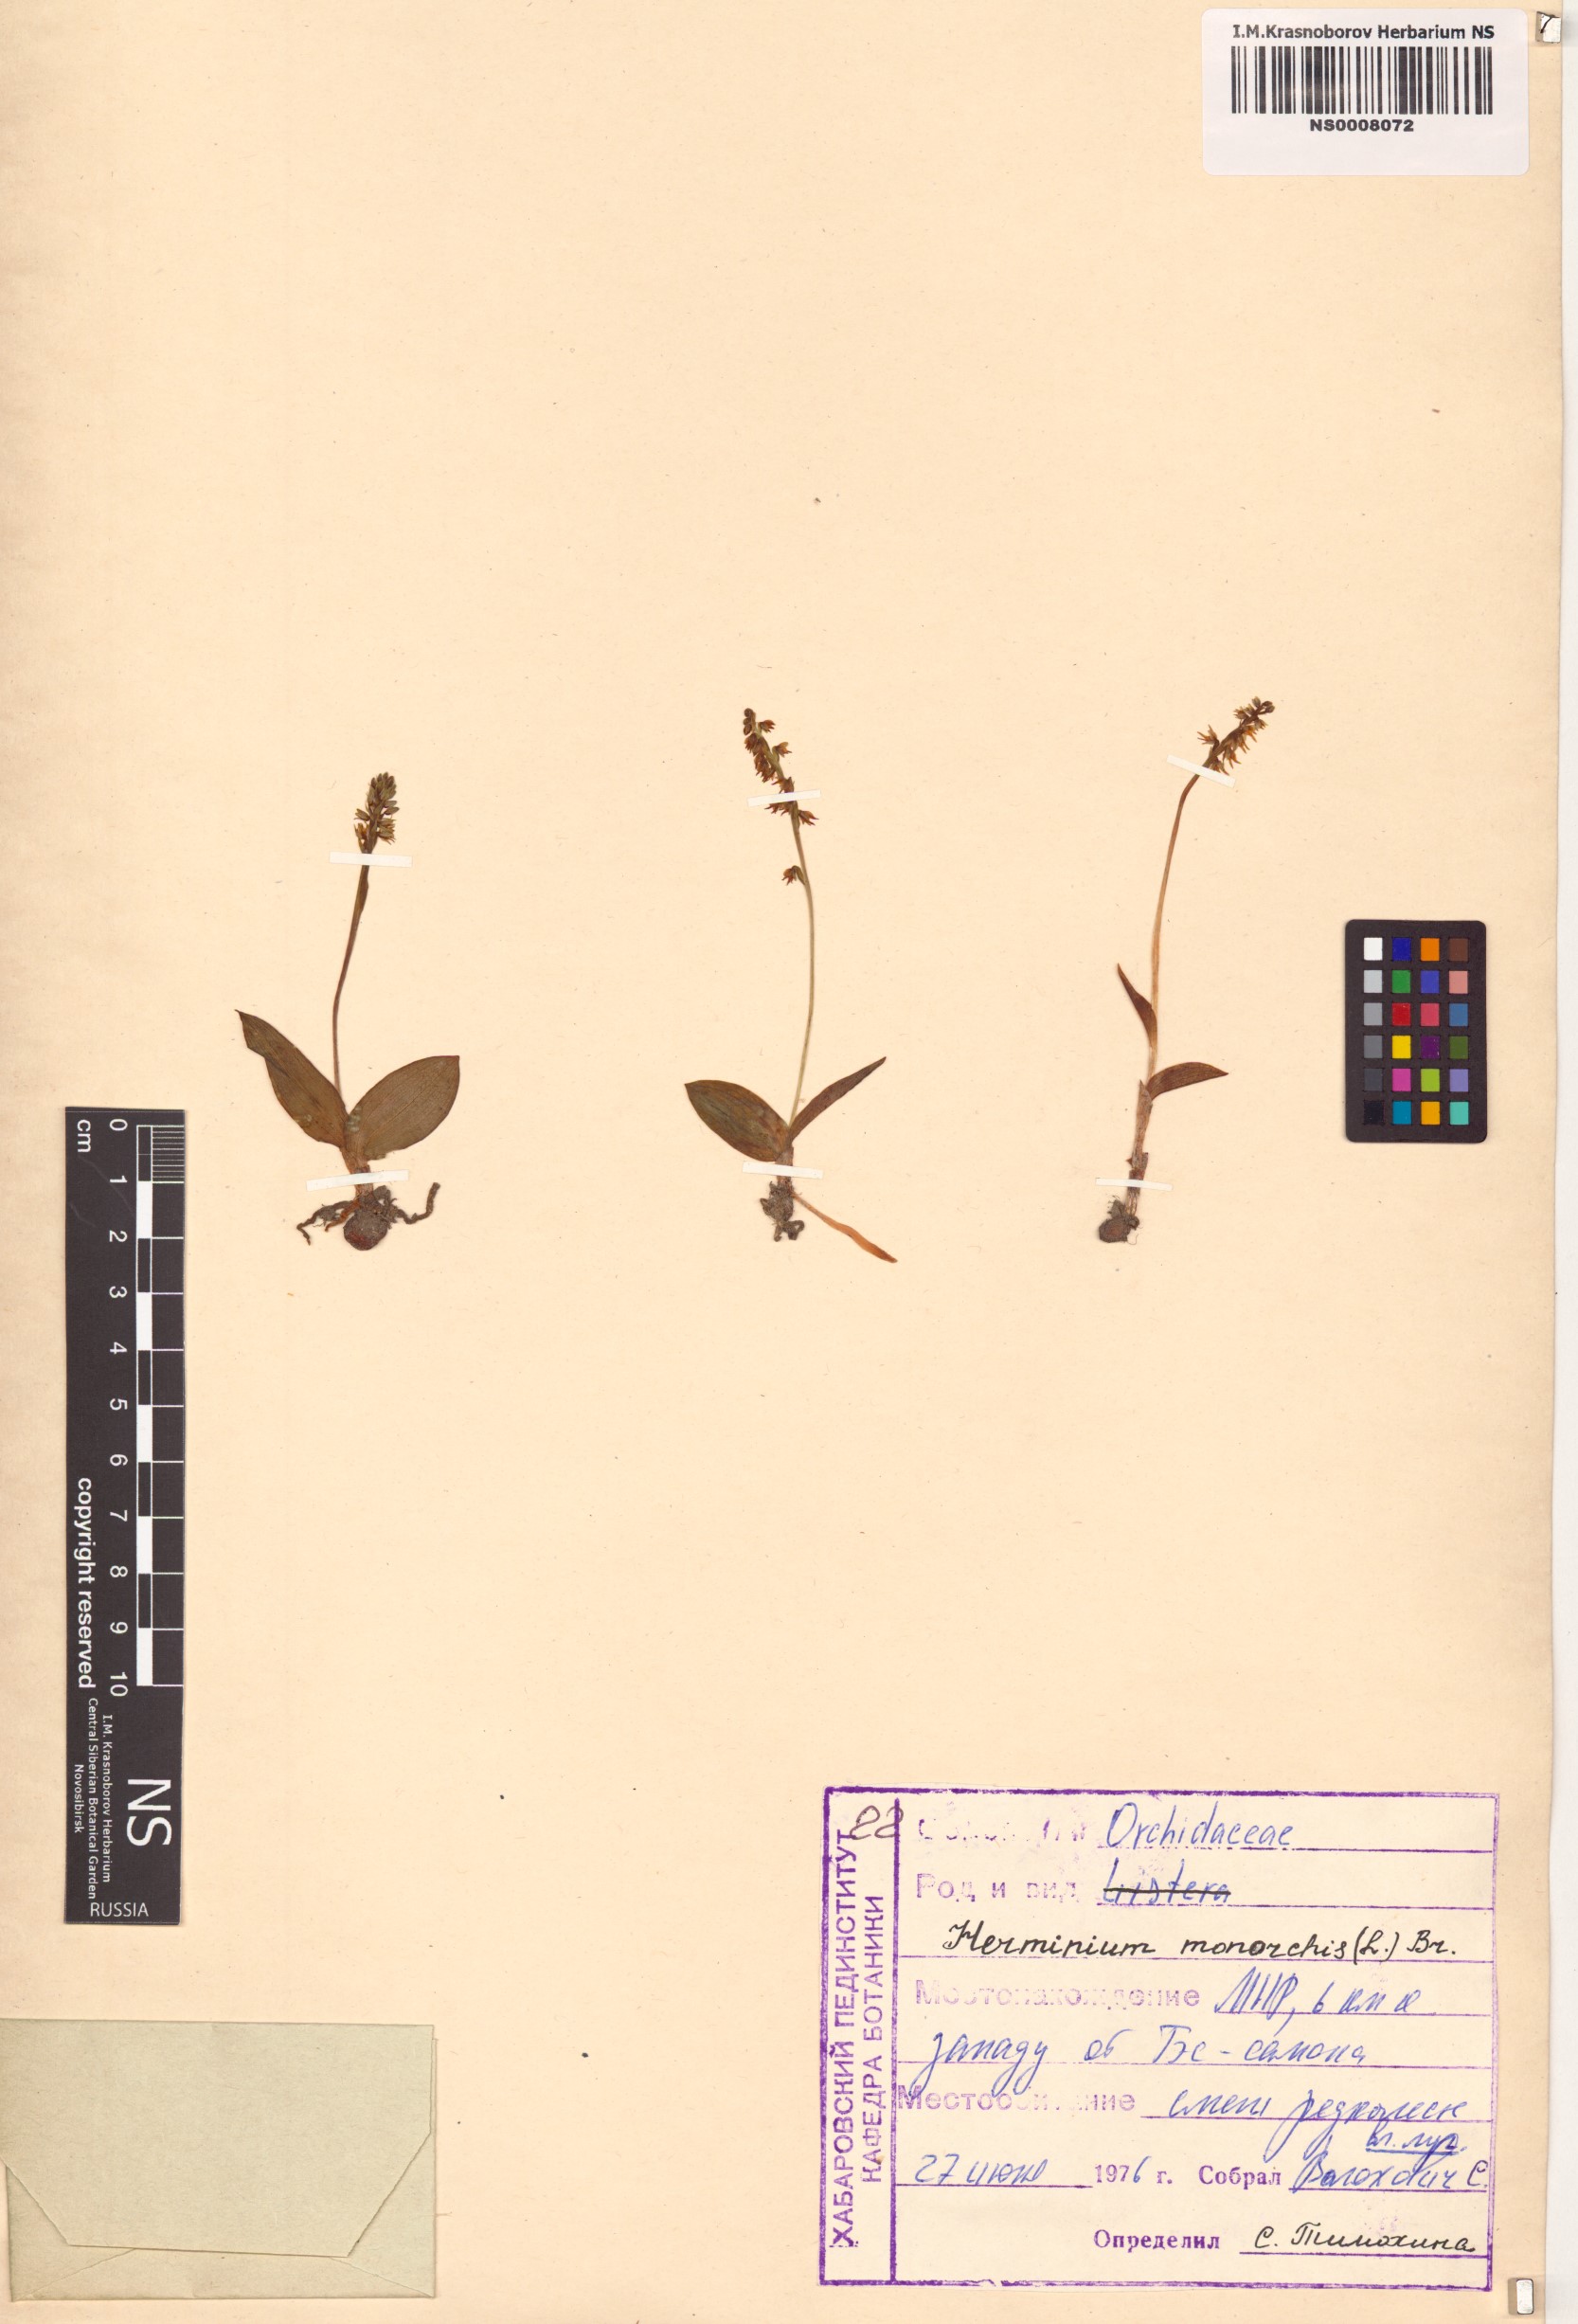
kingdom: Plantae
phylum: Tracheophyta
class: Liliopsida
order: Asparagales
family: Orchidaceae
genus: Herminium
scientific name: Herminium monorchis
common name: Musk orchid
